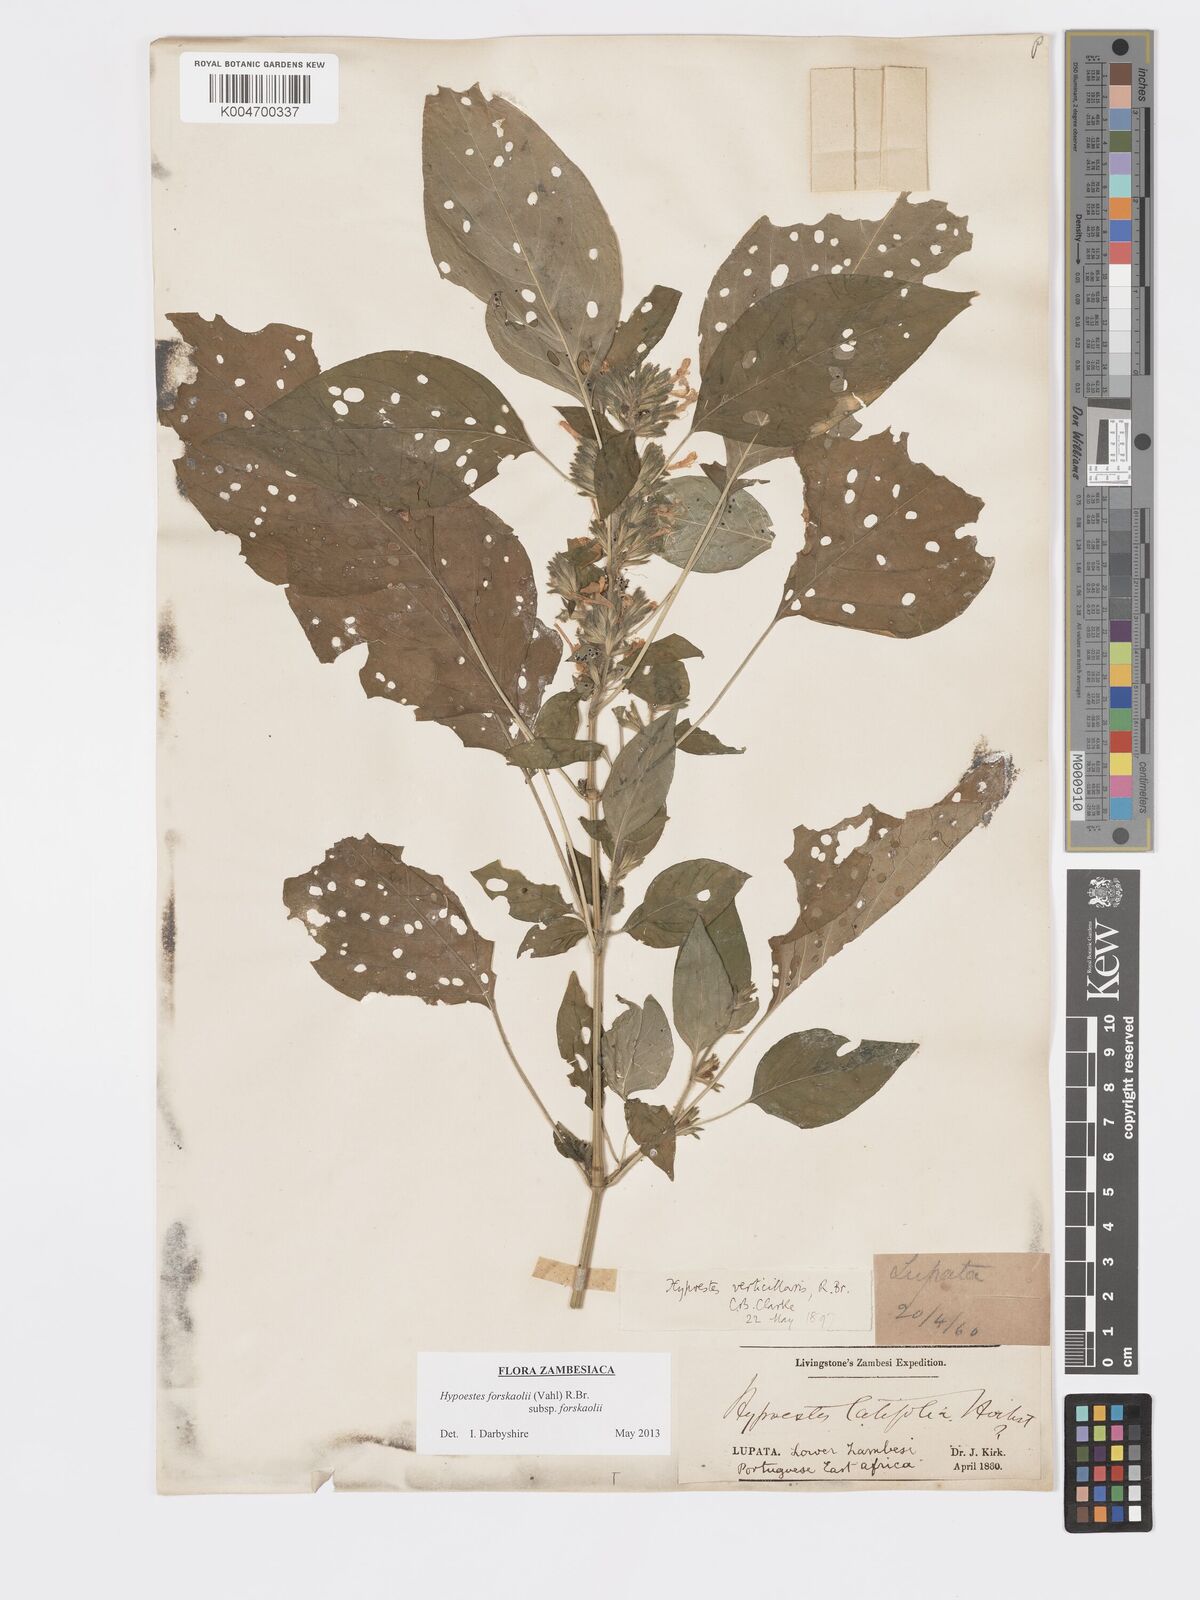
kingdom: Plantae
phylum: Tracheophyta
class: Magnoliopsida
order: Lamiales
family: Acanthaceae
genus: Hypoestes
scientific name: Hypoestes forskaolii
